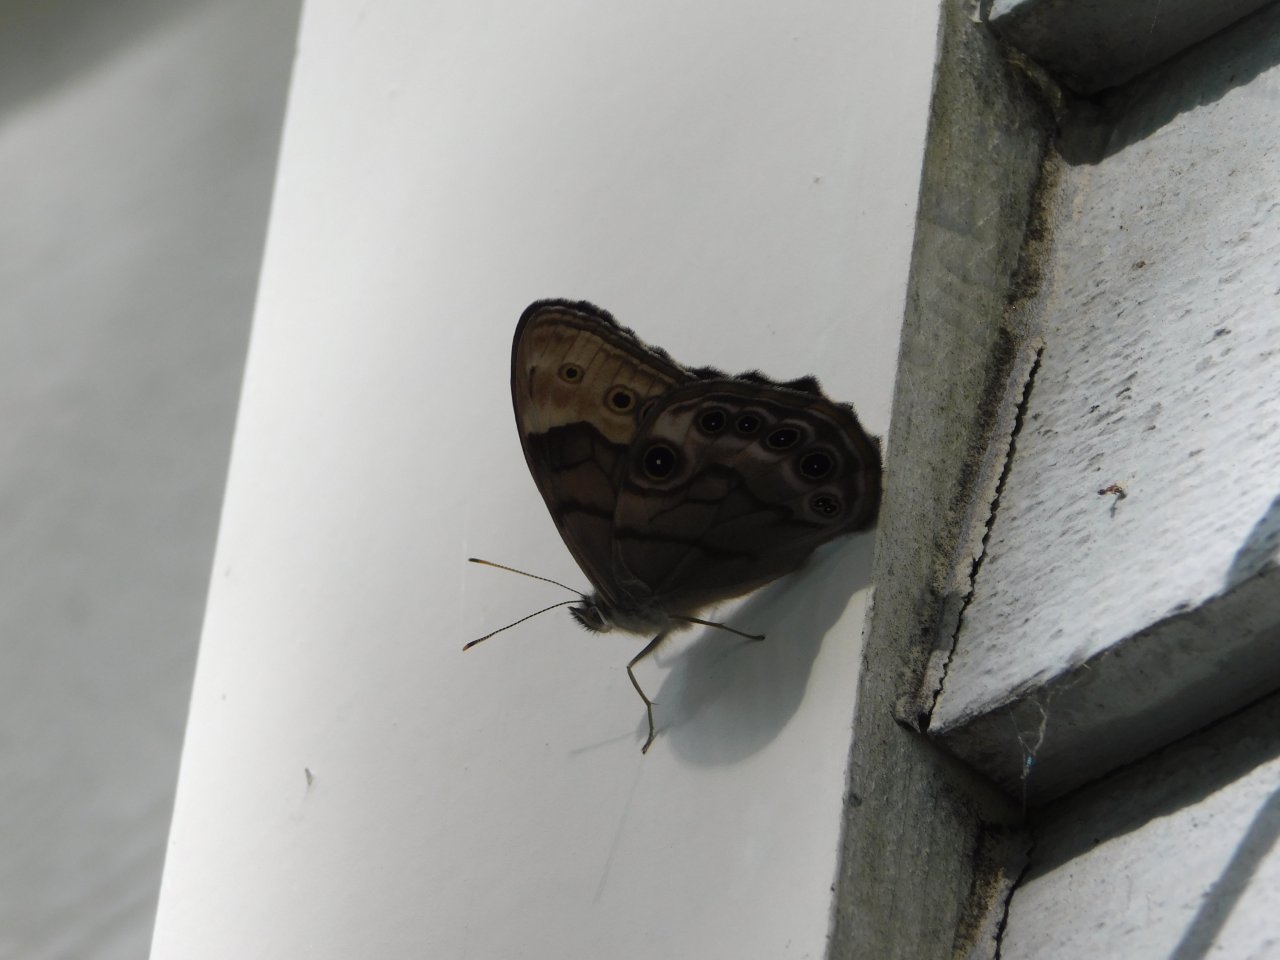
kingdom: Animalia
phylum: Arthropoda
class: Insecta
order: Lepidoptera
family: Nymphalidae
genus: Lethe
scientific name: Lethe anthedon
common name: Northern Pearly-Eye
